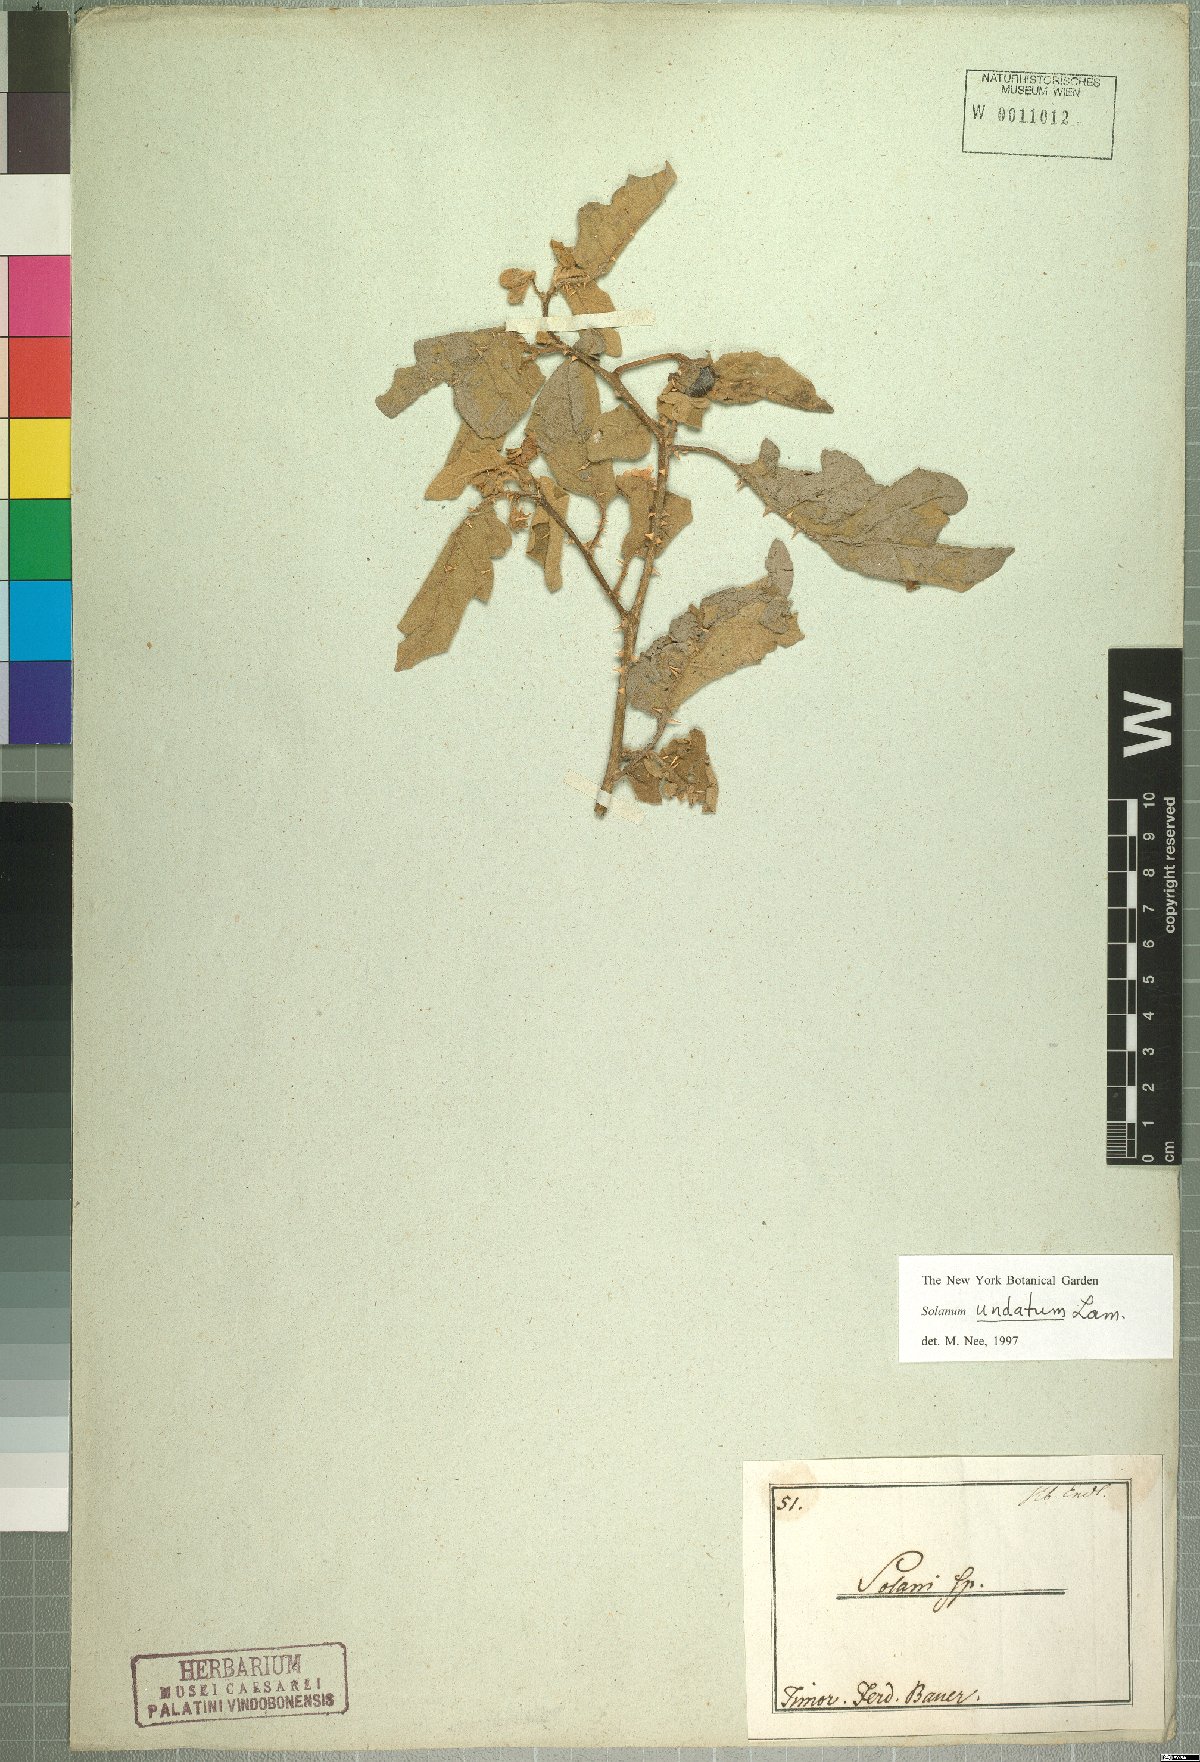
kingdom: Plantae
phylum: Tracheophyta
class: Magnoliopsida
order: Solanales
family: Solanaceae
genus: Solanum
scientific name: Solanum insanum
